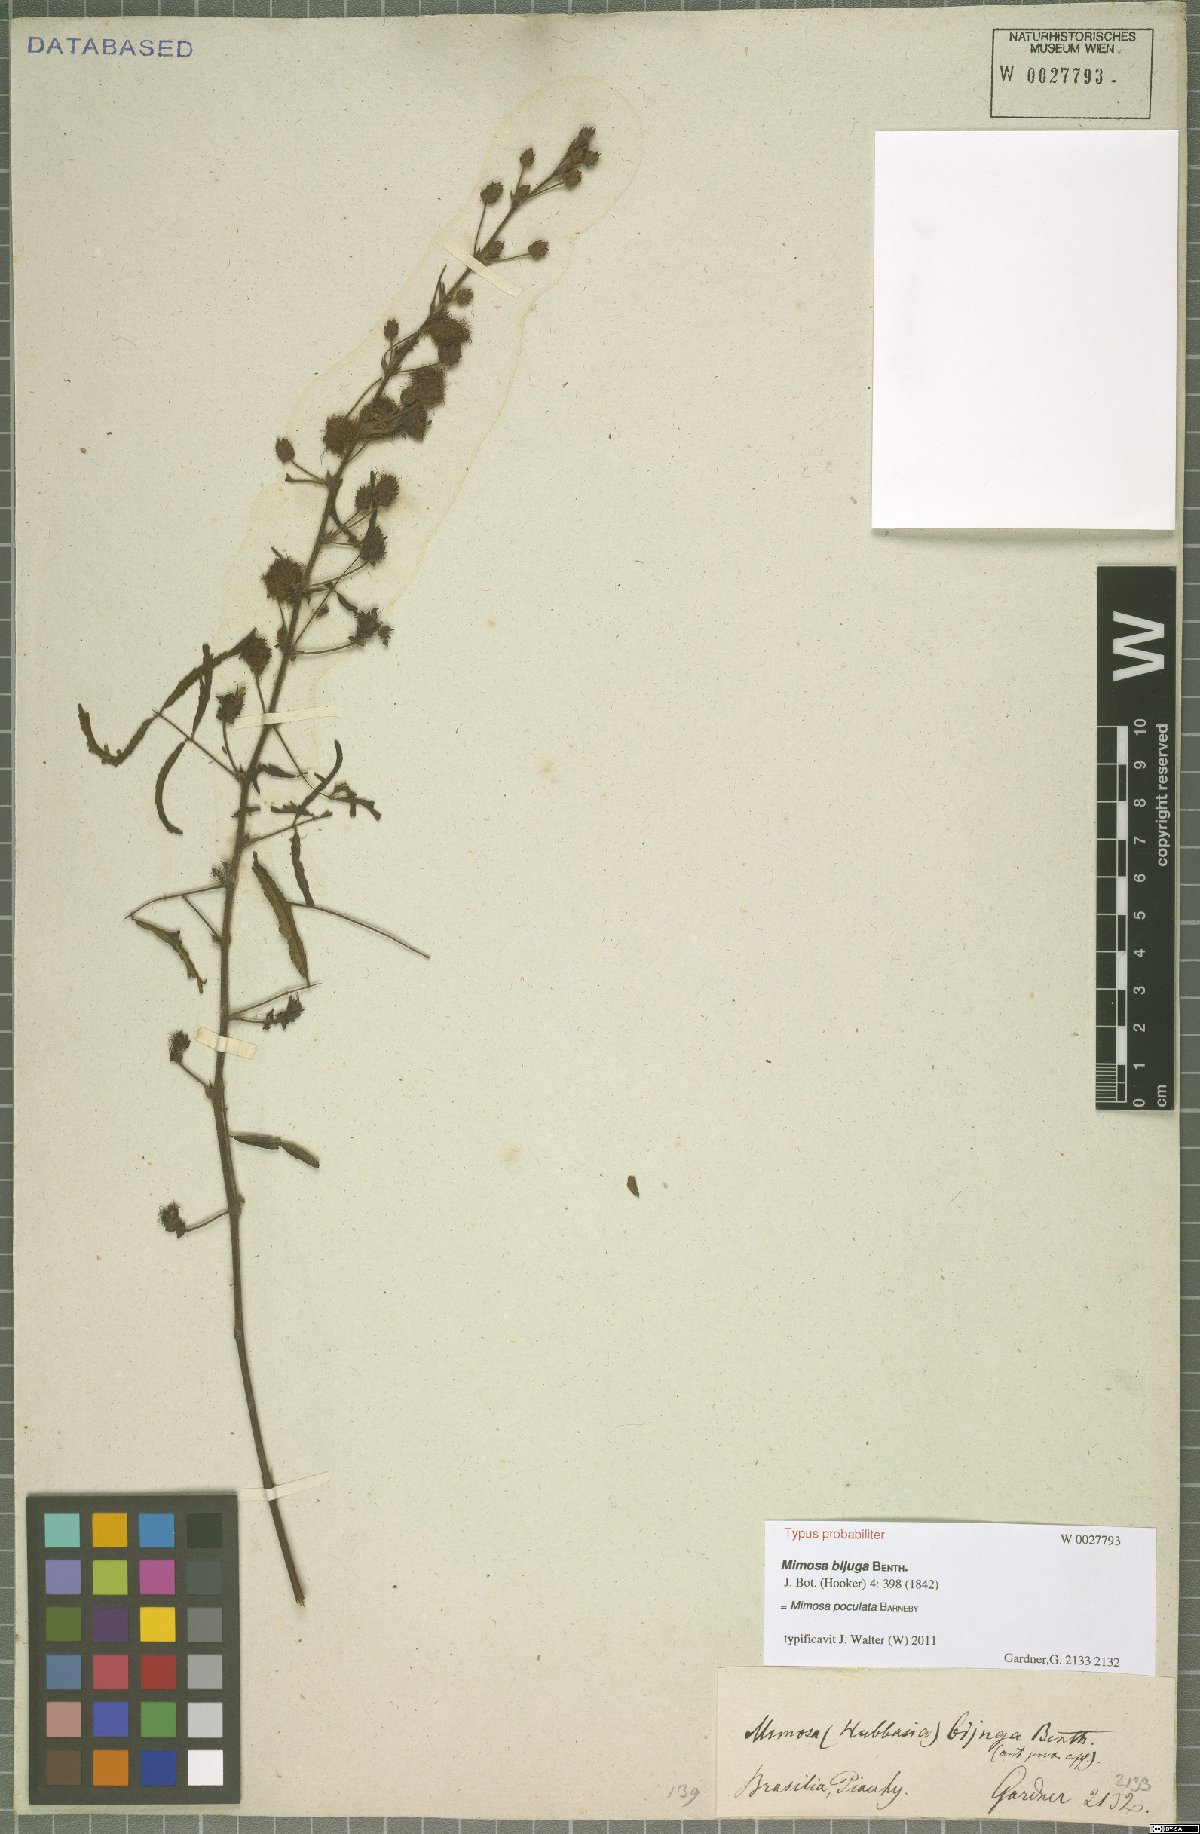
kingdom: Plantae
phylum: Tracheophyta
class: Magnoliopsida
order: Fabales
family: Fabaceae
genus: Mimosa
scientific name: Mimosa poculata
